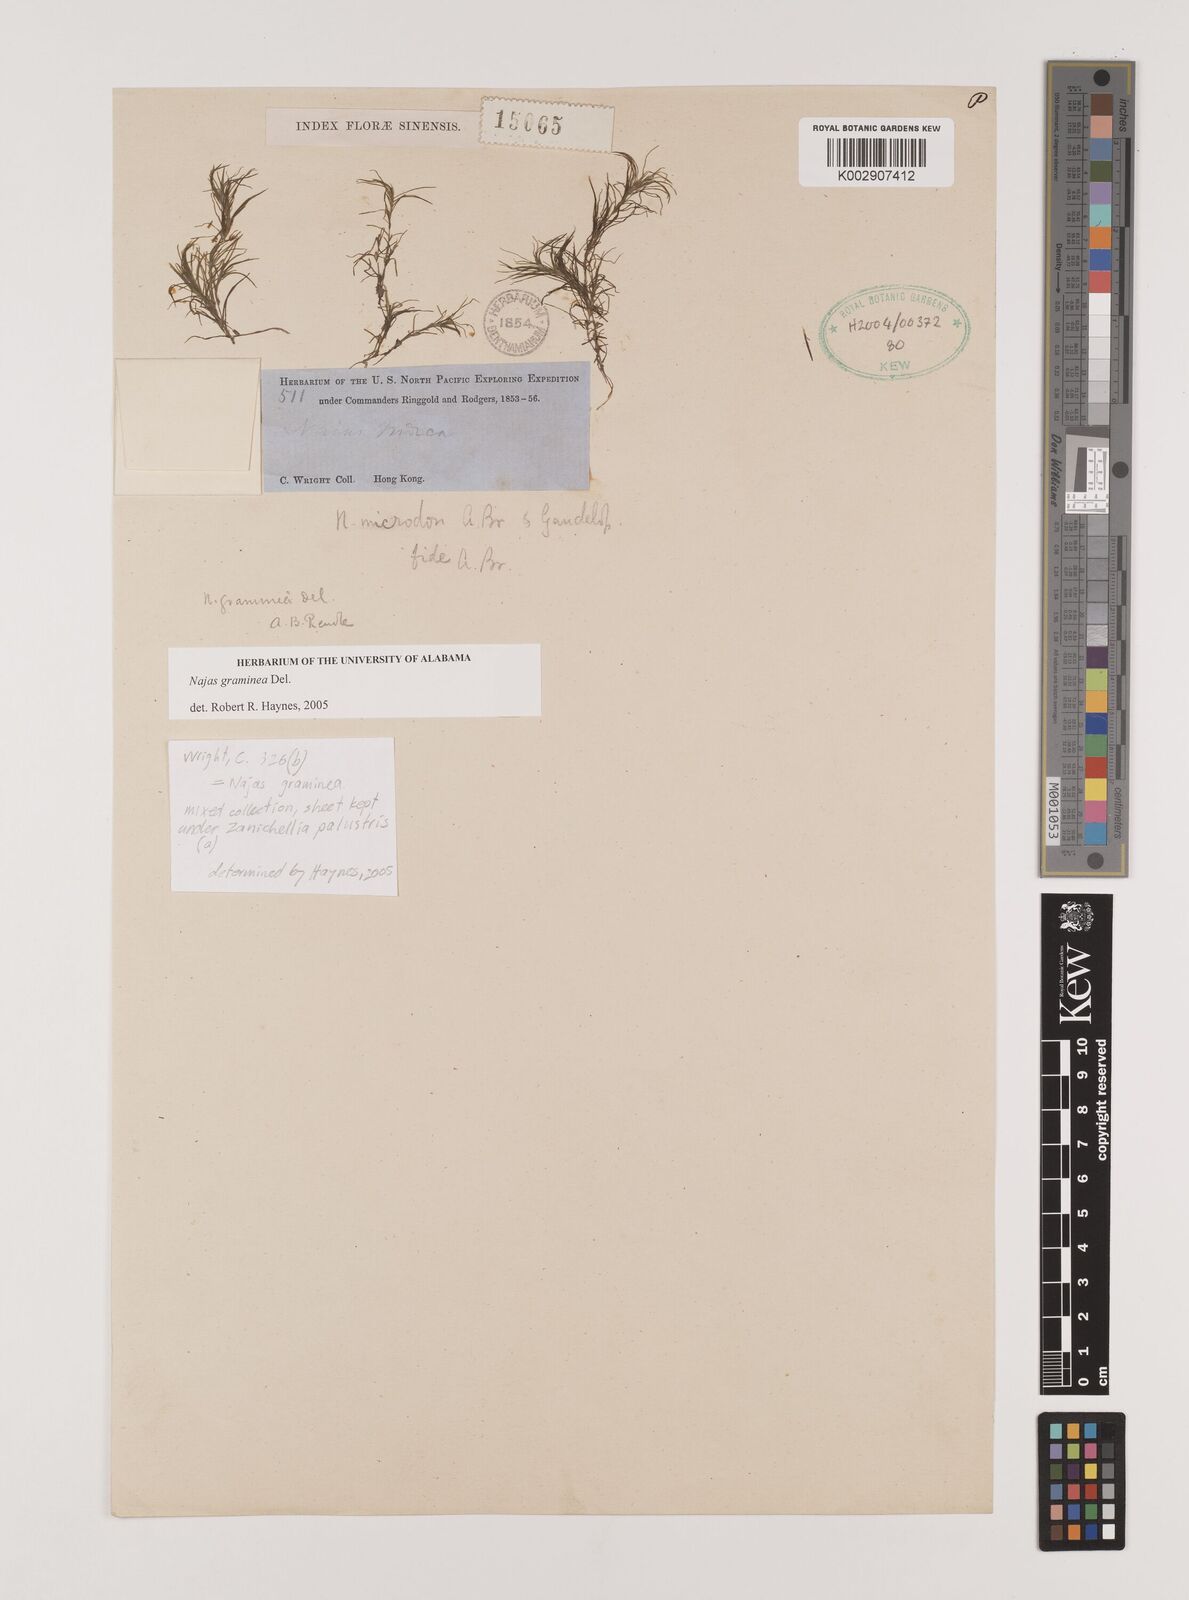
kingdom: Plantae
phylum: Tracheophyta
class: Liliopsida
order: Alismatales
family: Hydrocharitaceae
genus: Najas
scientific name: Najas graminea
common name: Ricefield waternymph
